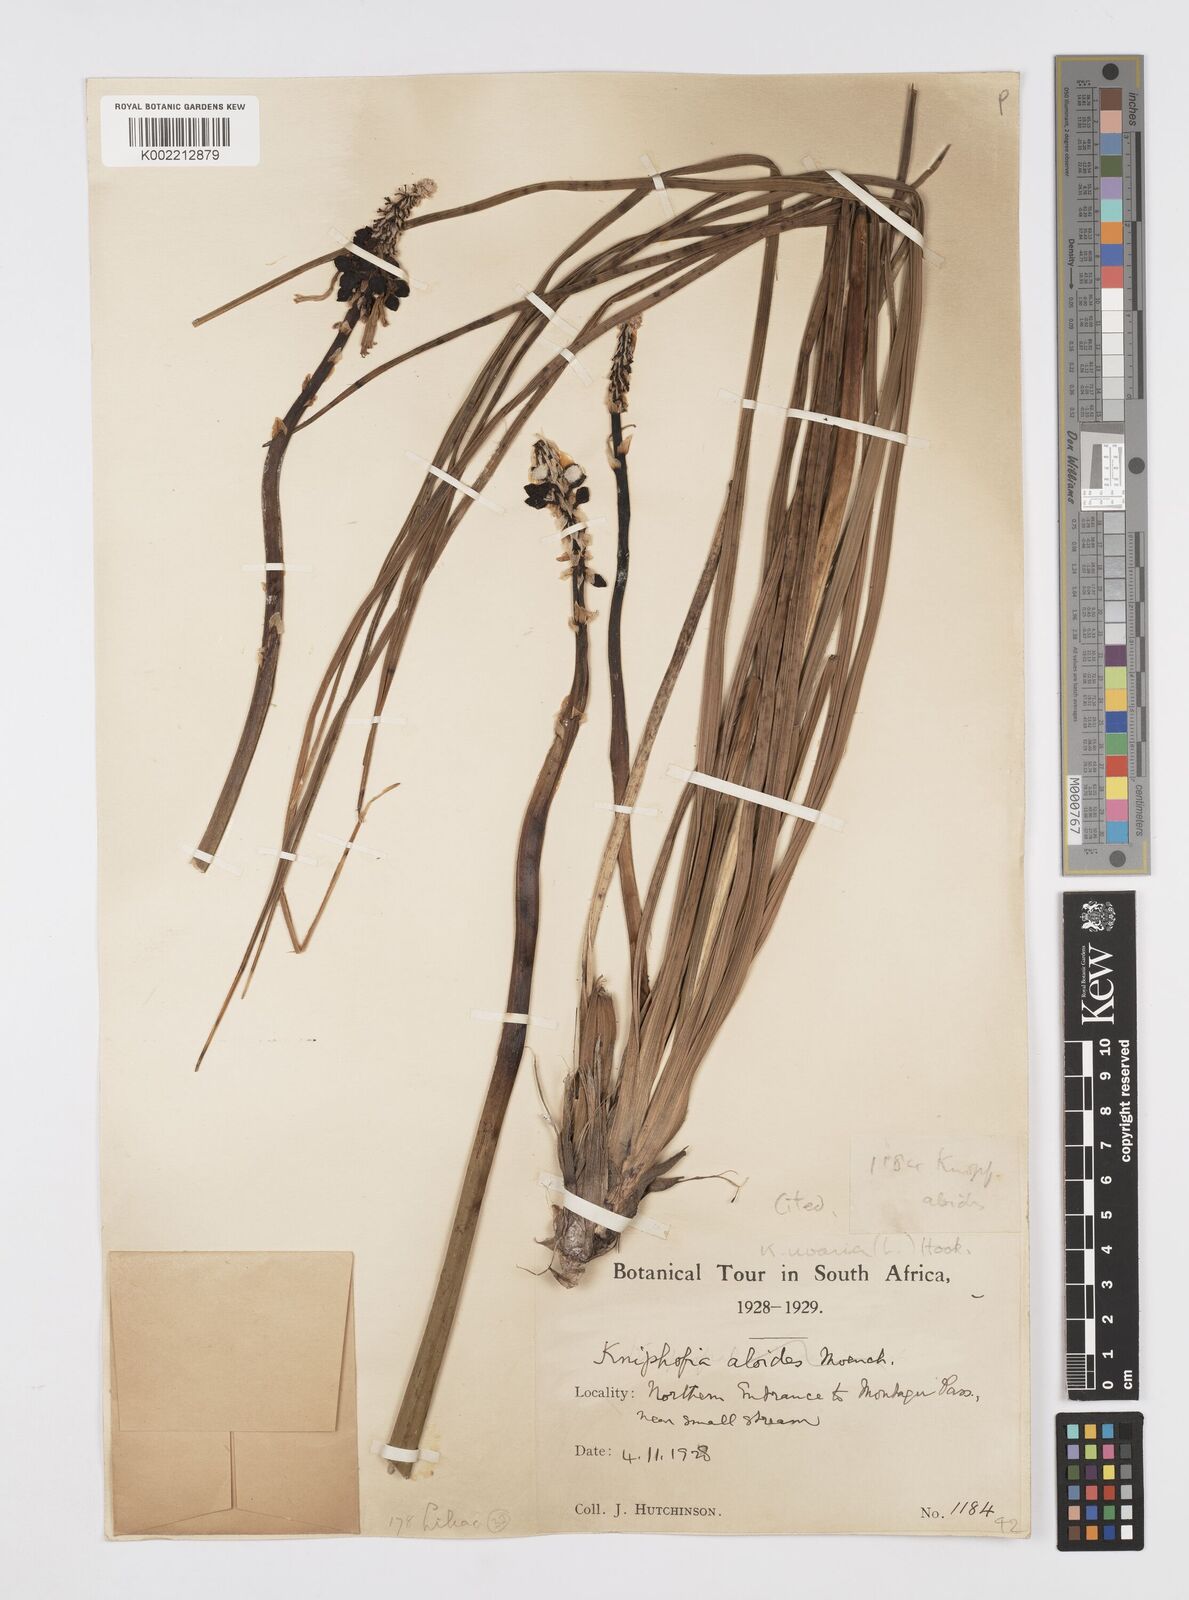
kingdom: Plantae
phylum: Tracheophyta
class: Liliopsida
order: Asparagales
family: Asphodelaceae
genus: Kniphofia
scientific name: Kniphofia uvaria
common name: Red-hot-poker
